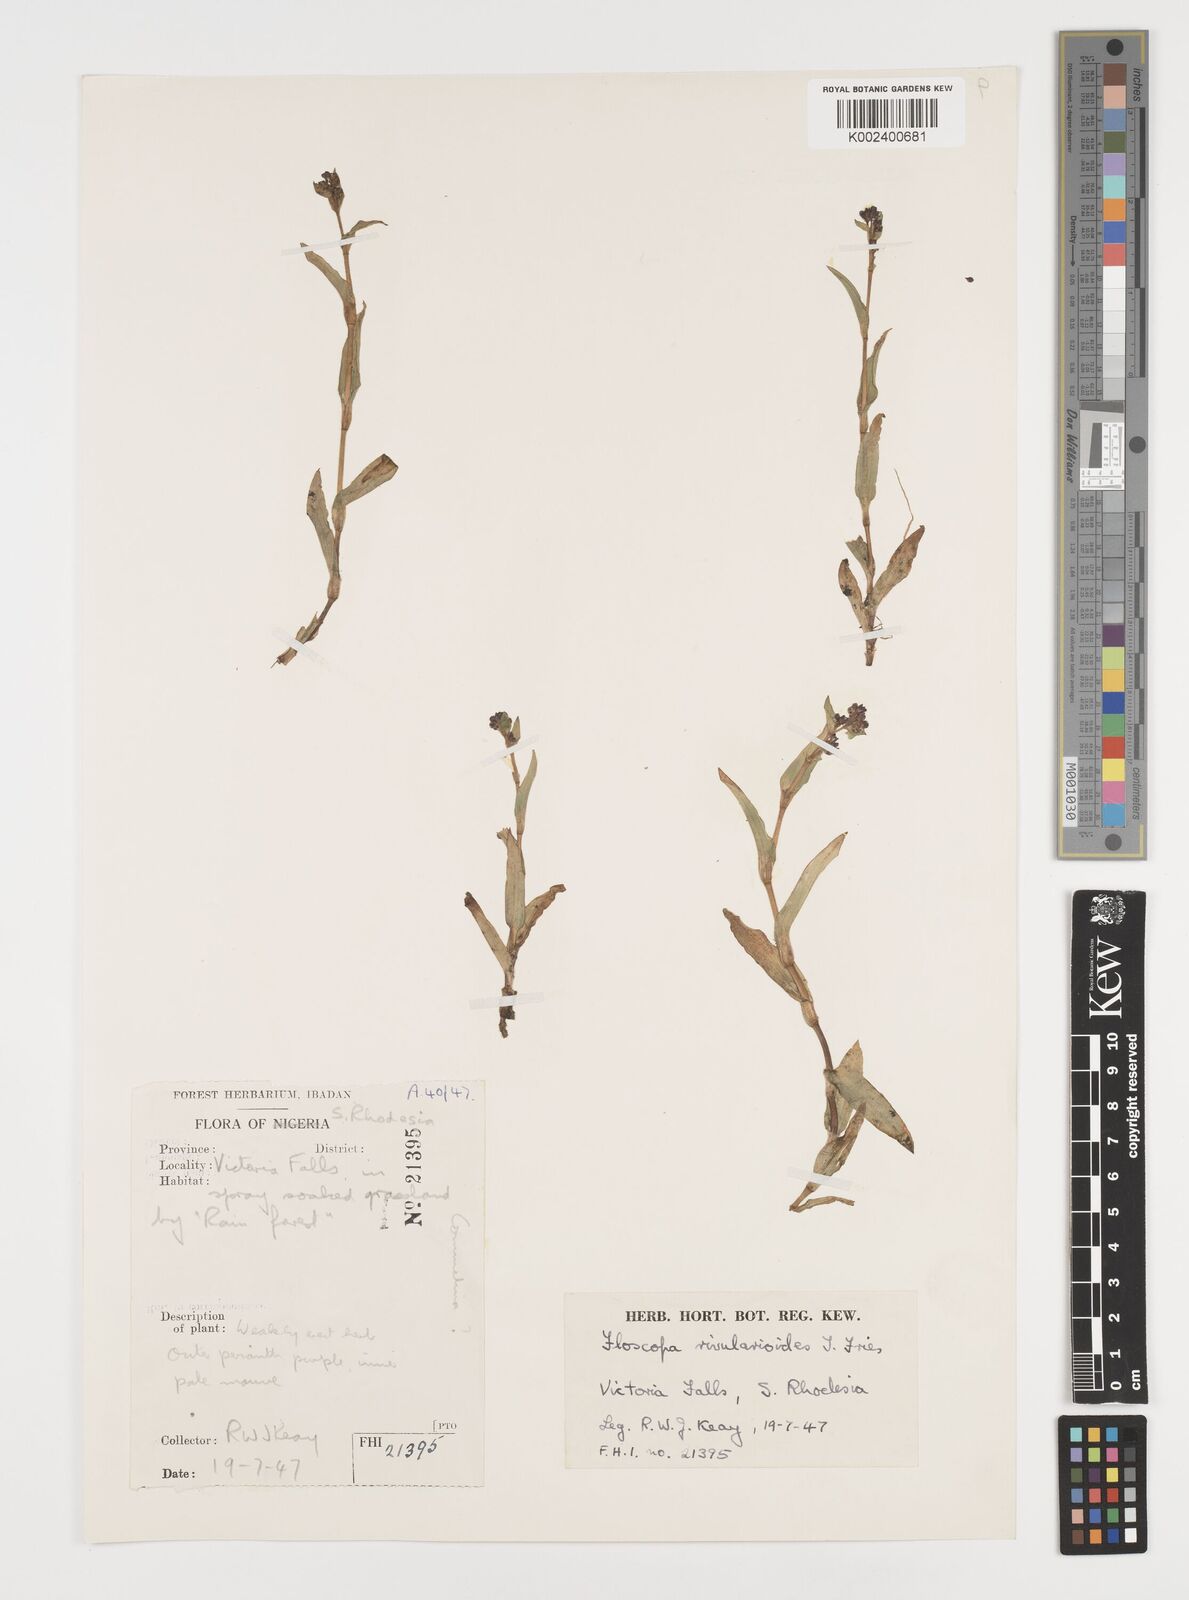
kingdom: Plantae
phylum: Tracheophyta
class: Liliopsida
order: Commelinales
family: Commelinaceae
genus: Floscopa
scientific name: Floscopa rivularioides
